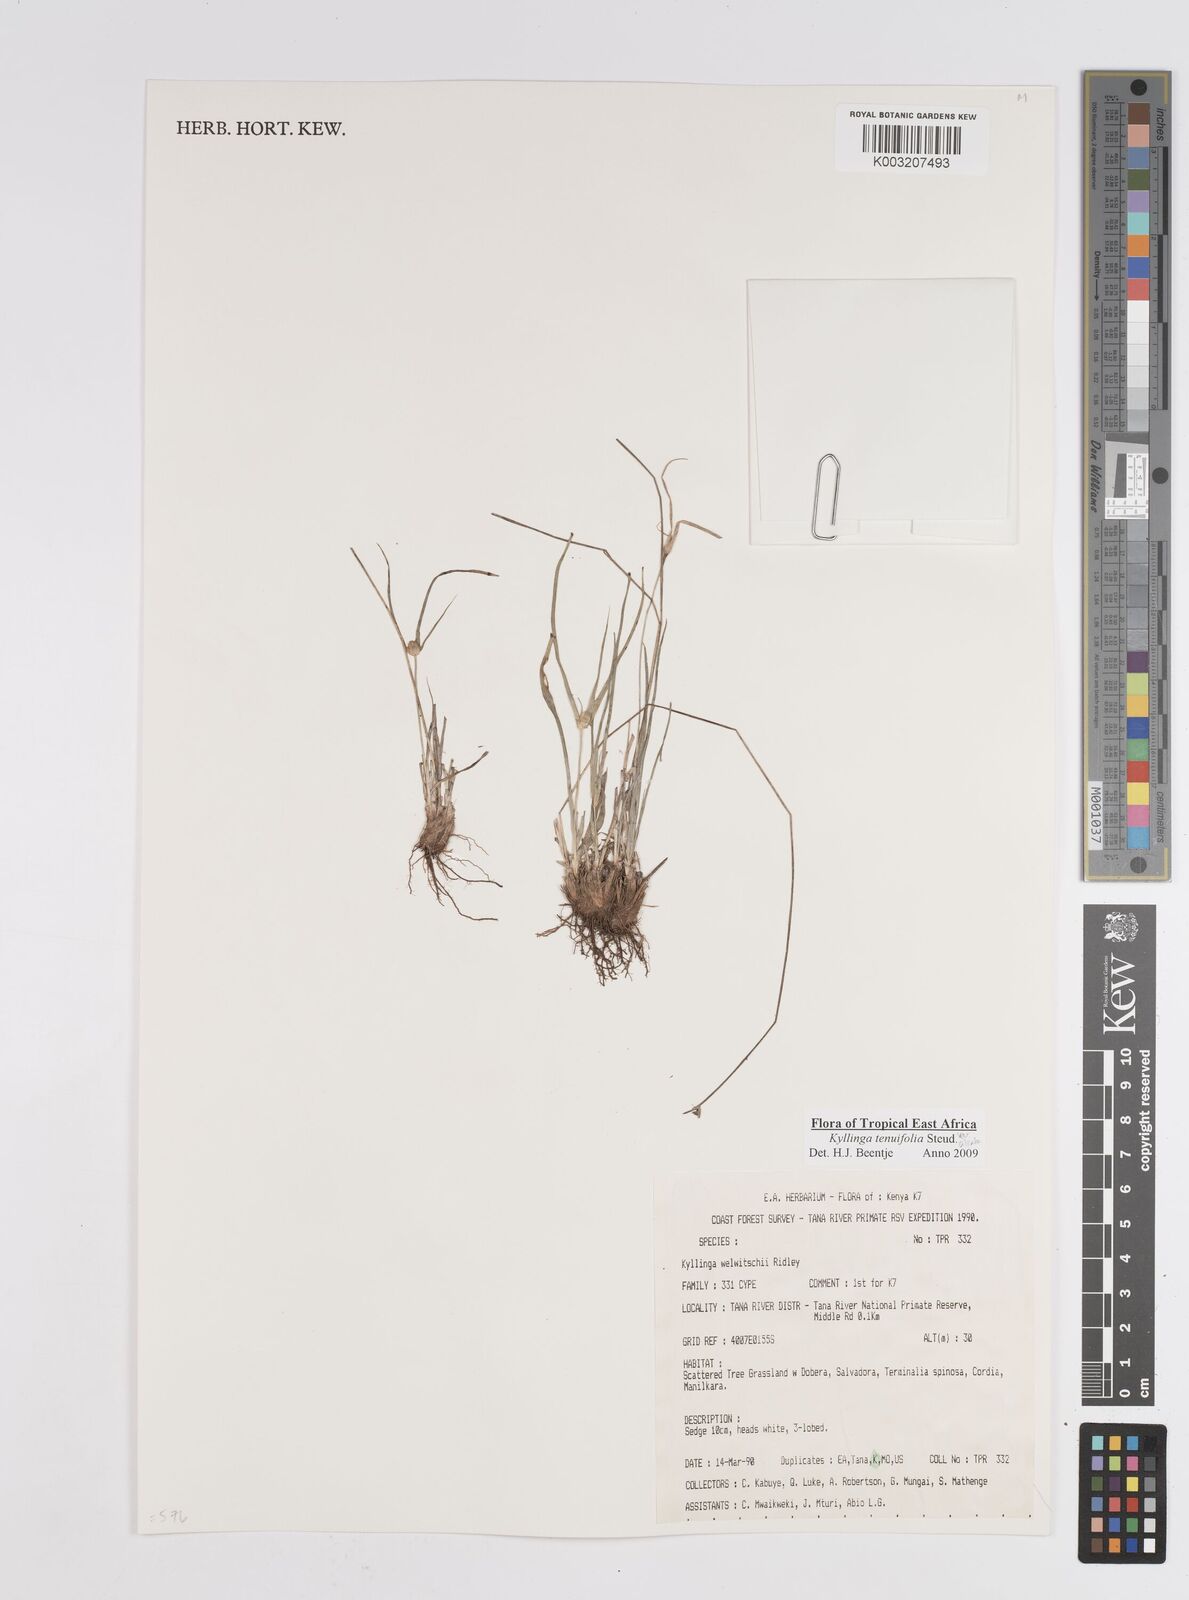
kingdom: Plantae
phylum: Tracheophyta
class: Liliopsida
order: Poales
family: Cyperaceae
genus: Cyperus
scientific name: Cyperus
